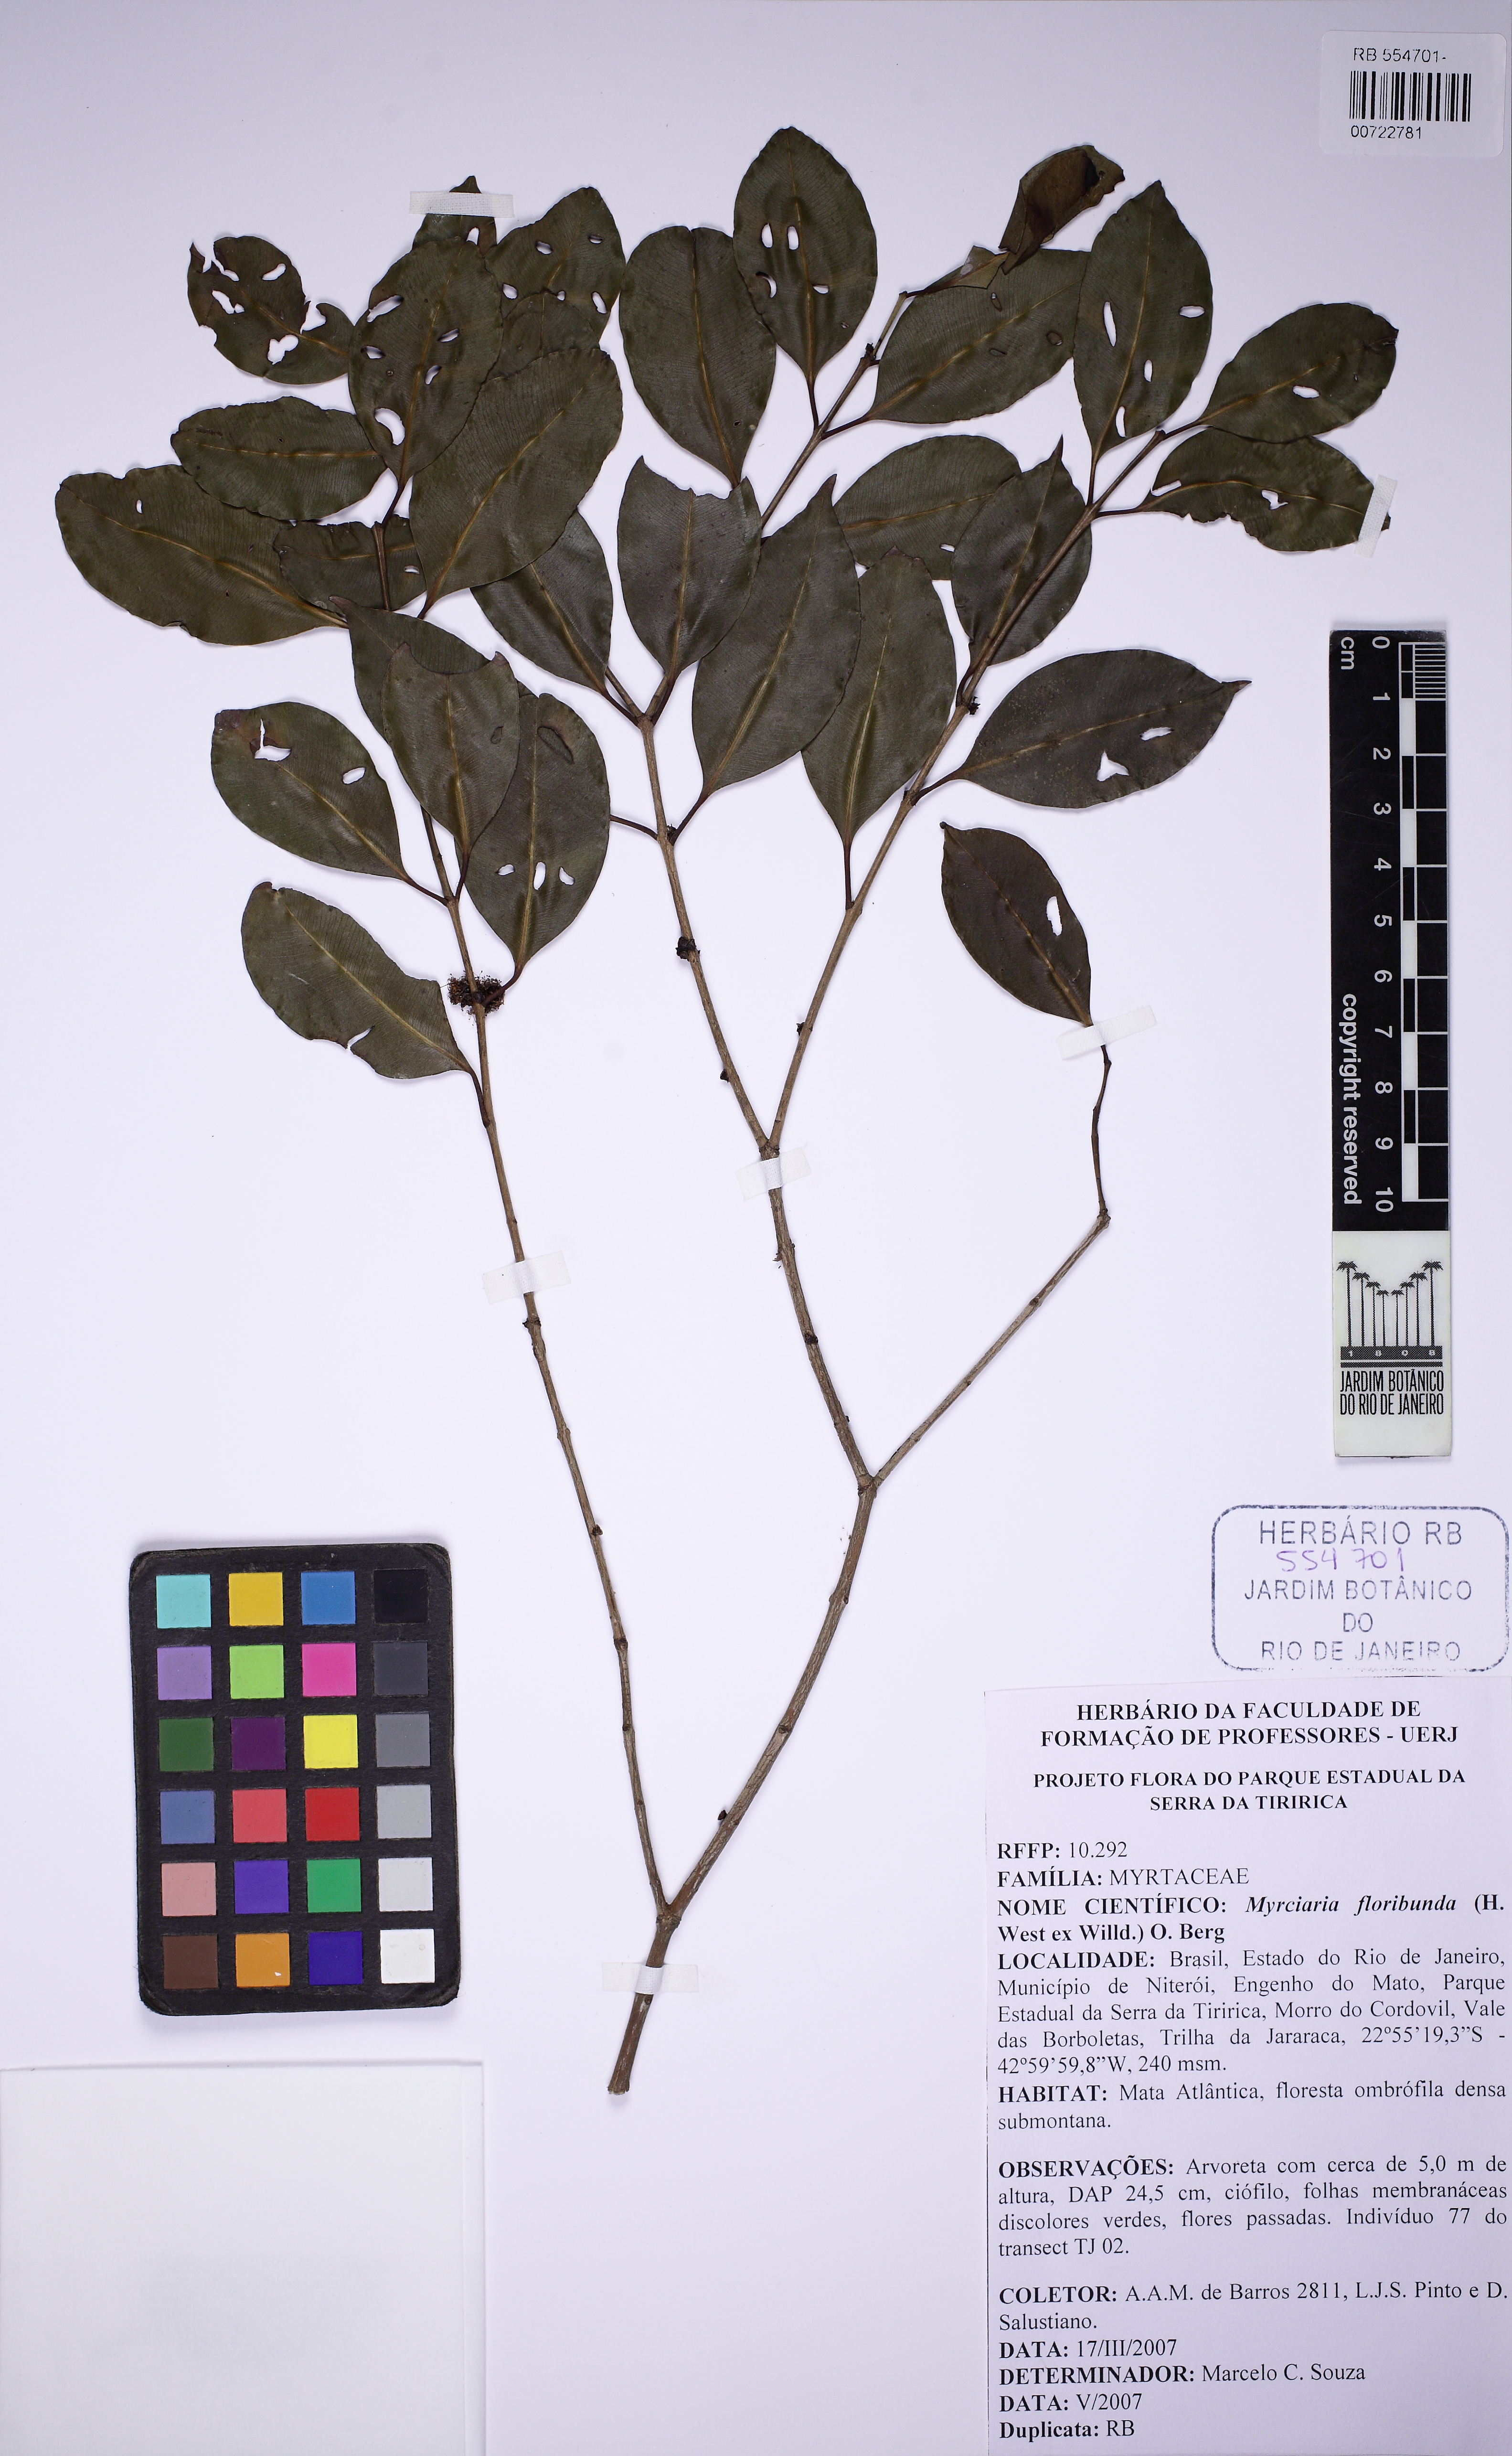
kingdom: Plantae
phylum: Tracheophyta
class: Magnoliopsida
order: Myrtales
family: Myrtaceae
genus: Myrciaria
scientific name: Myrciaria floribunda
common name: Guavaberry
